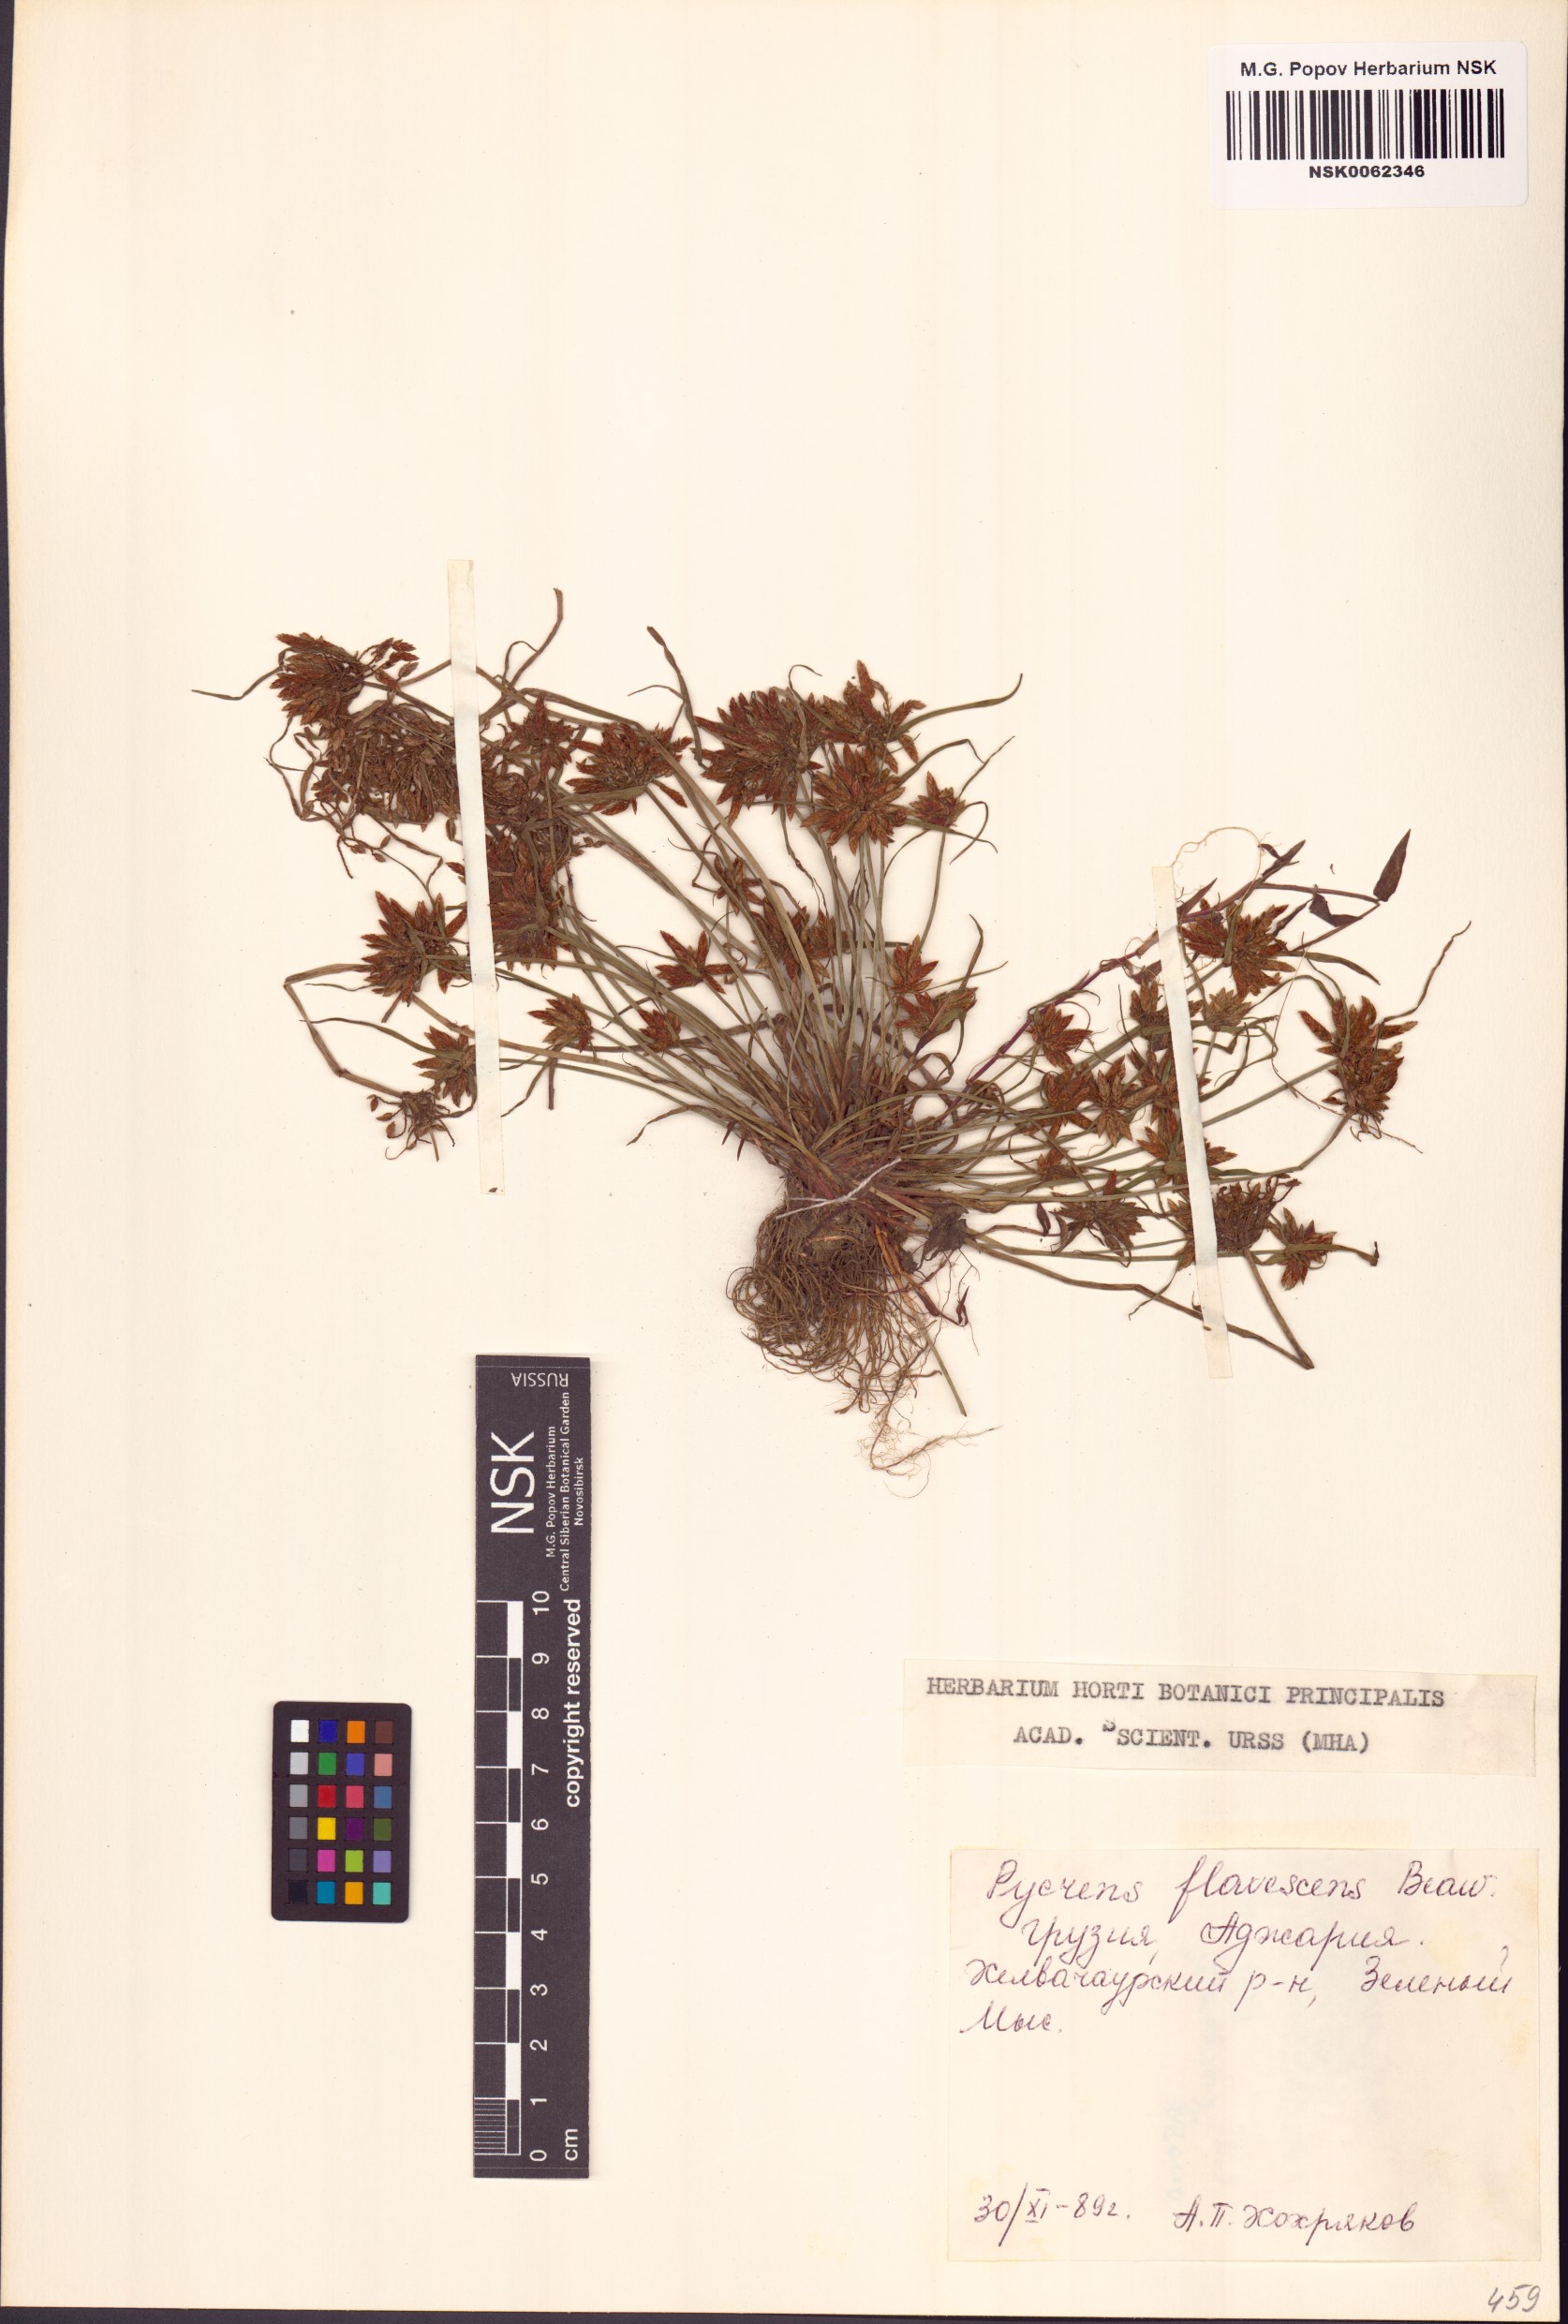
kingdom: Plantae
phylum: Tracheophyta
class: Liliopsida
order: Poales
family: Cyperaceae
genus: Cyperus
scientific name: Cyperus flavescens
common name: Yellow galingale
